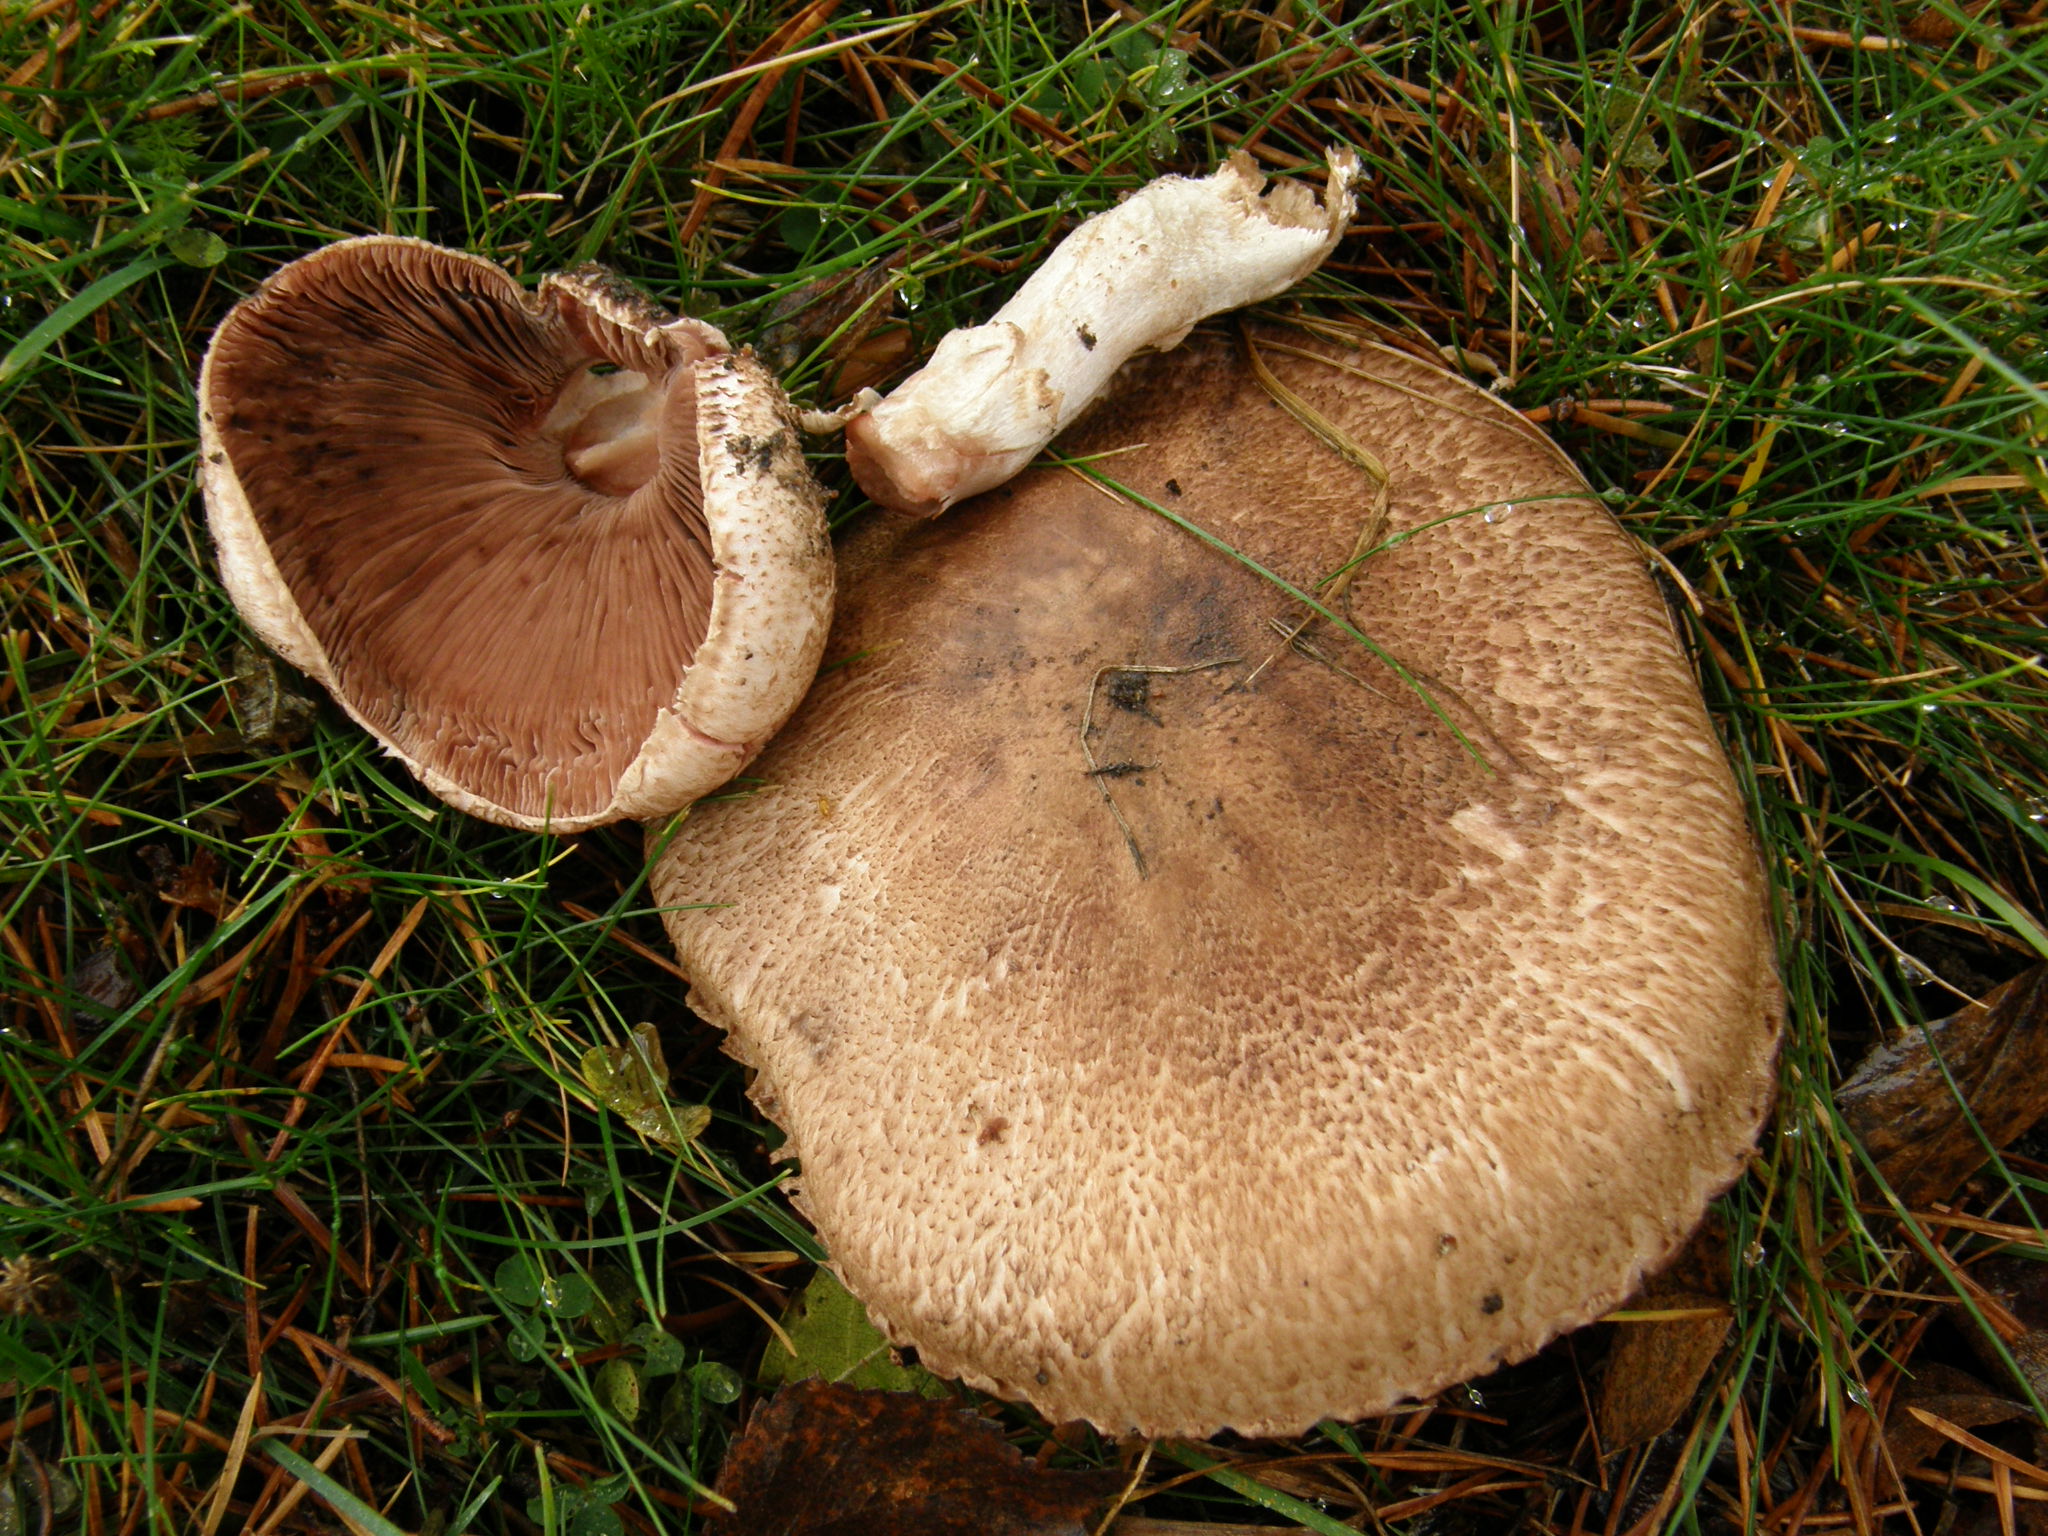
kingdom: Fungi
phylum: Basidiomycota
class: Agaricomycetes
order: Agaricales
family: Agaricaceae
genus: Agaricus
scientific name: Agaricus
